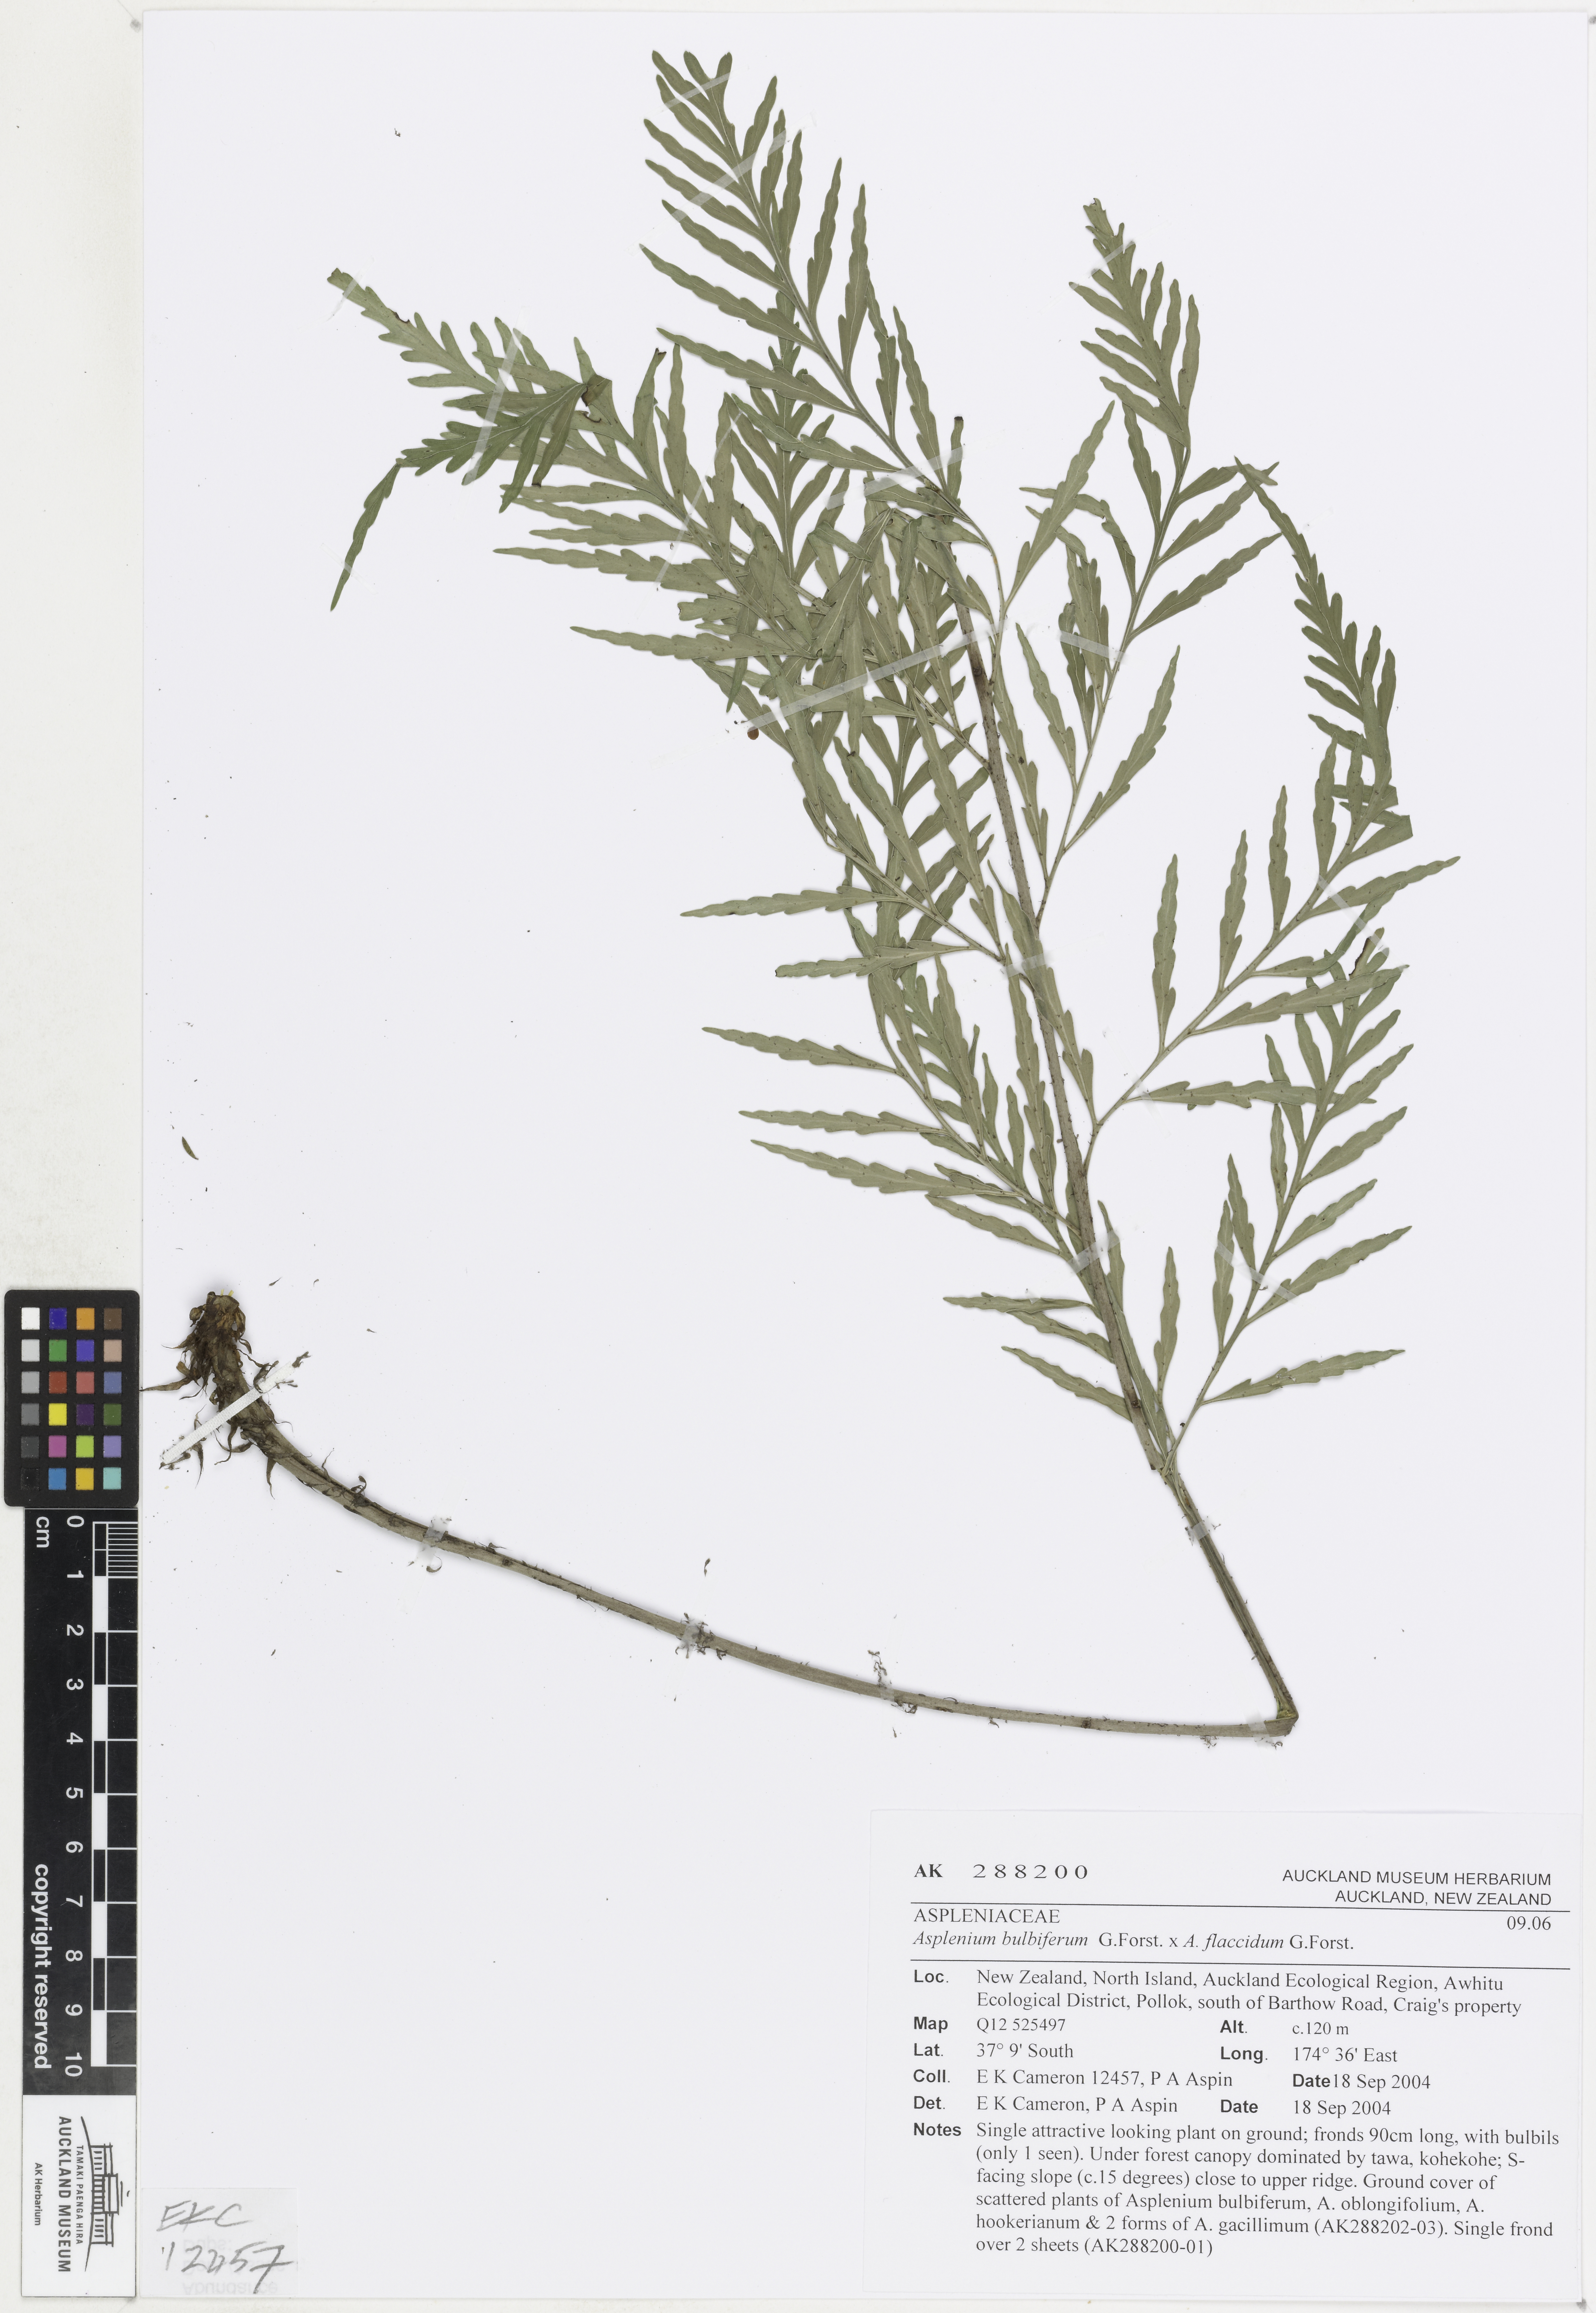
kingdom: Plantae
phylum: Tracheophyta
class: Polypodiopsida
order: Polypodiales
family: Aspleniaceae
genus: Asplenium
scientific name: Asplenium
